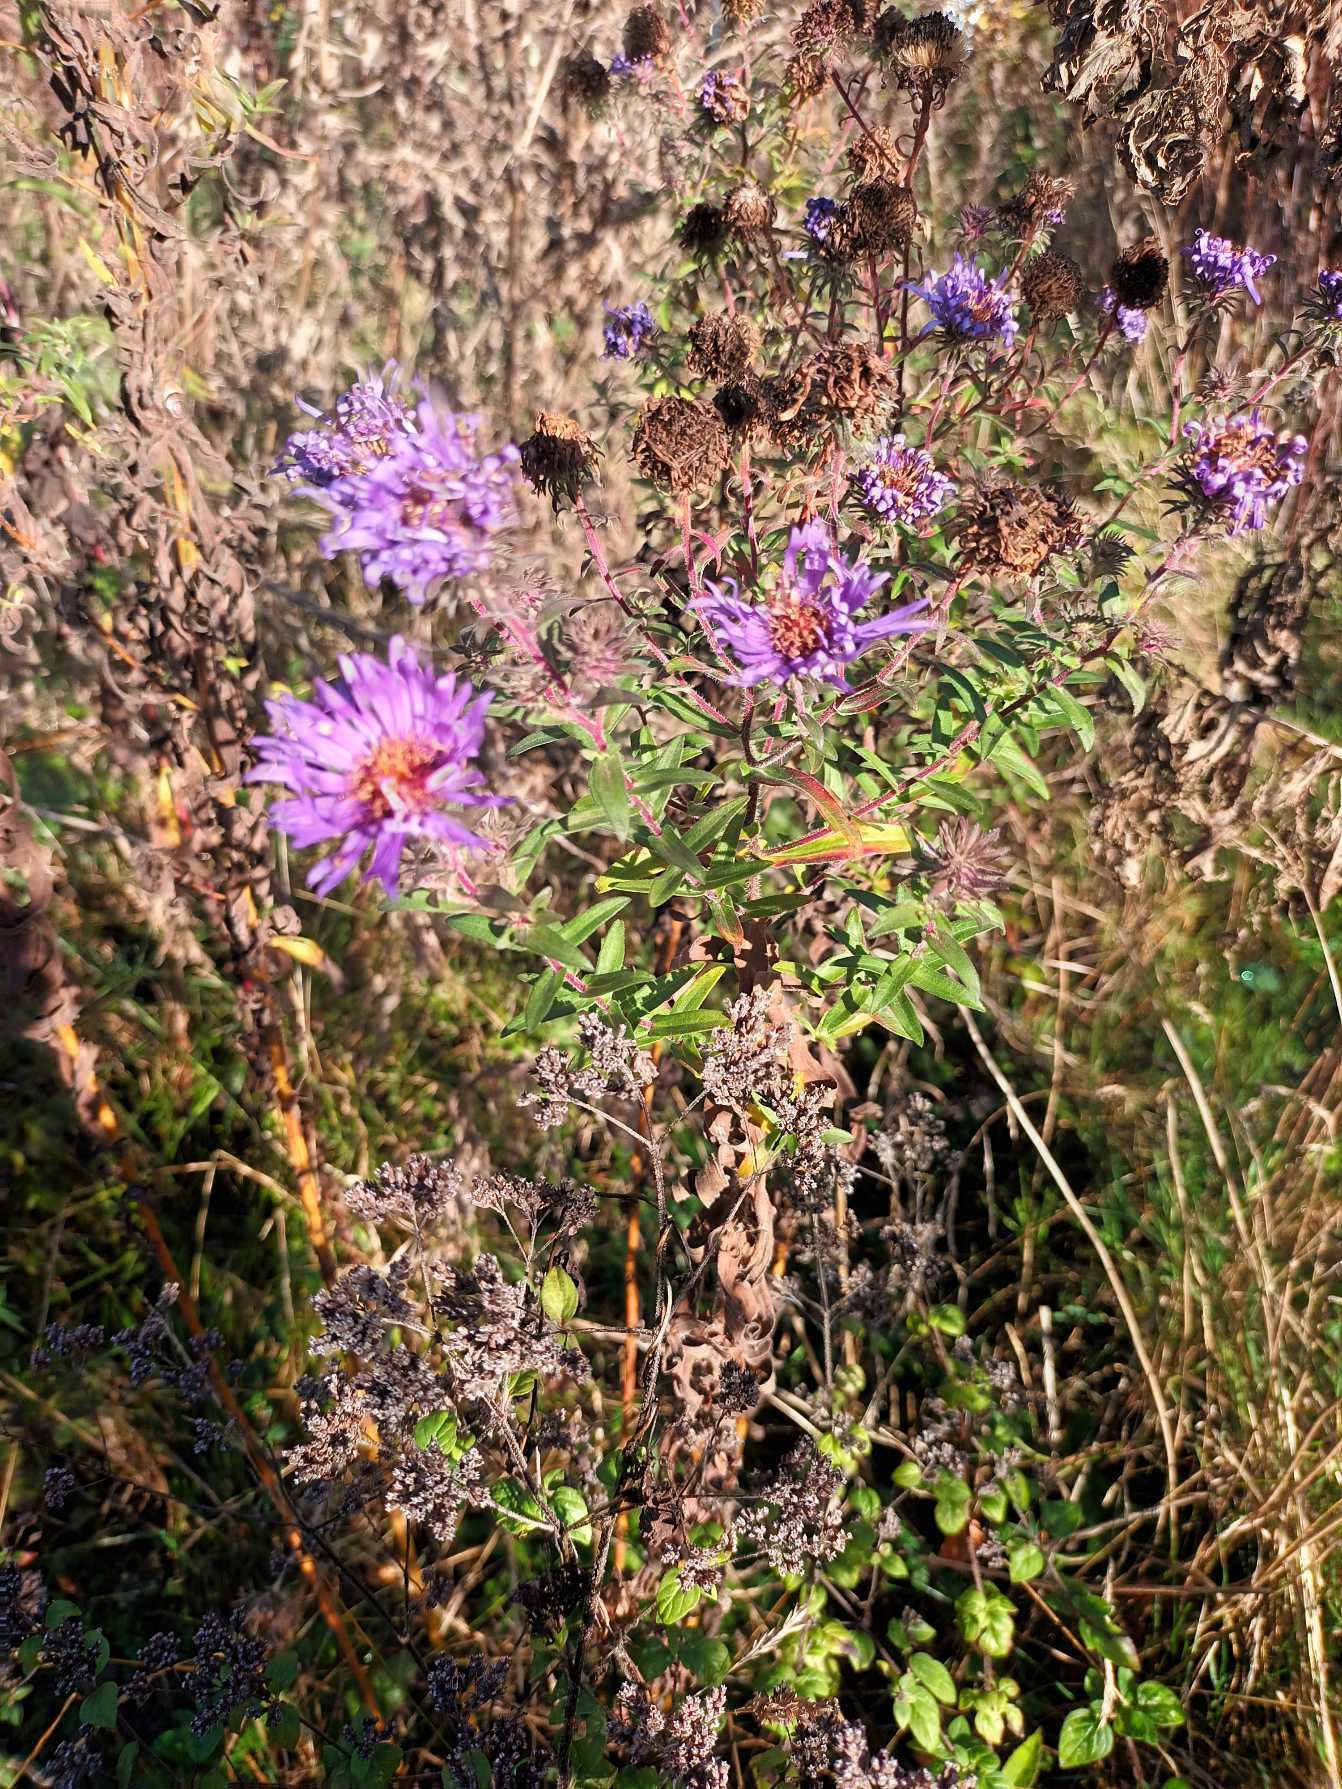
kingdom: Plantae
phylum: Tracheophyta
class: Magnoliopsida
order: Asterales
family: Asteraceae
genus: Symphyotrichum
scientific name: Symphyotrichum novae-angliae
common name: Nyengelsk asters
